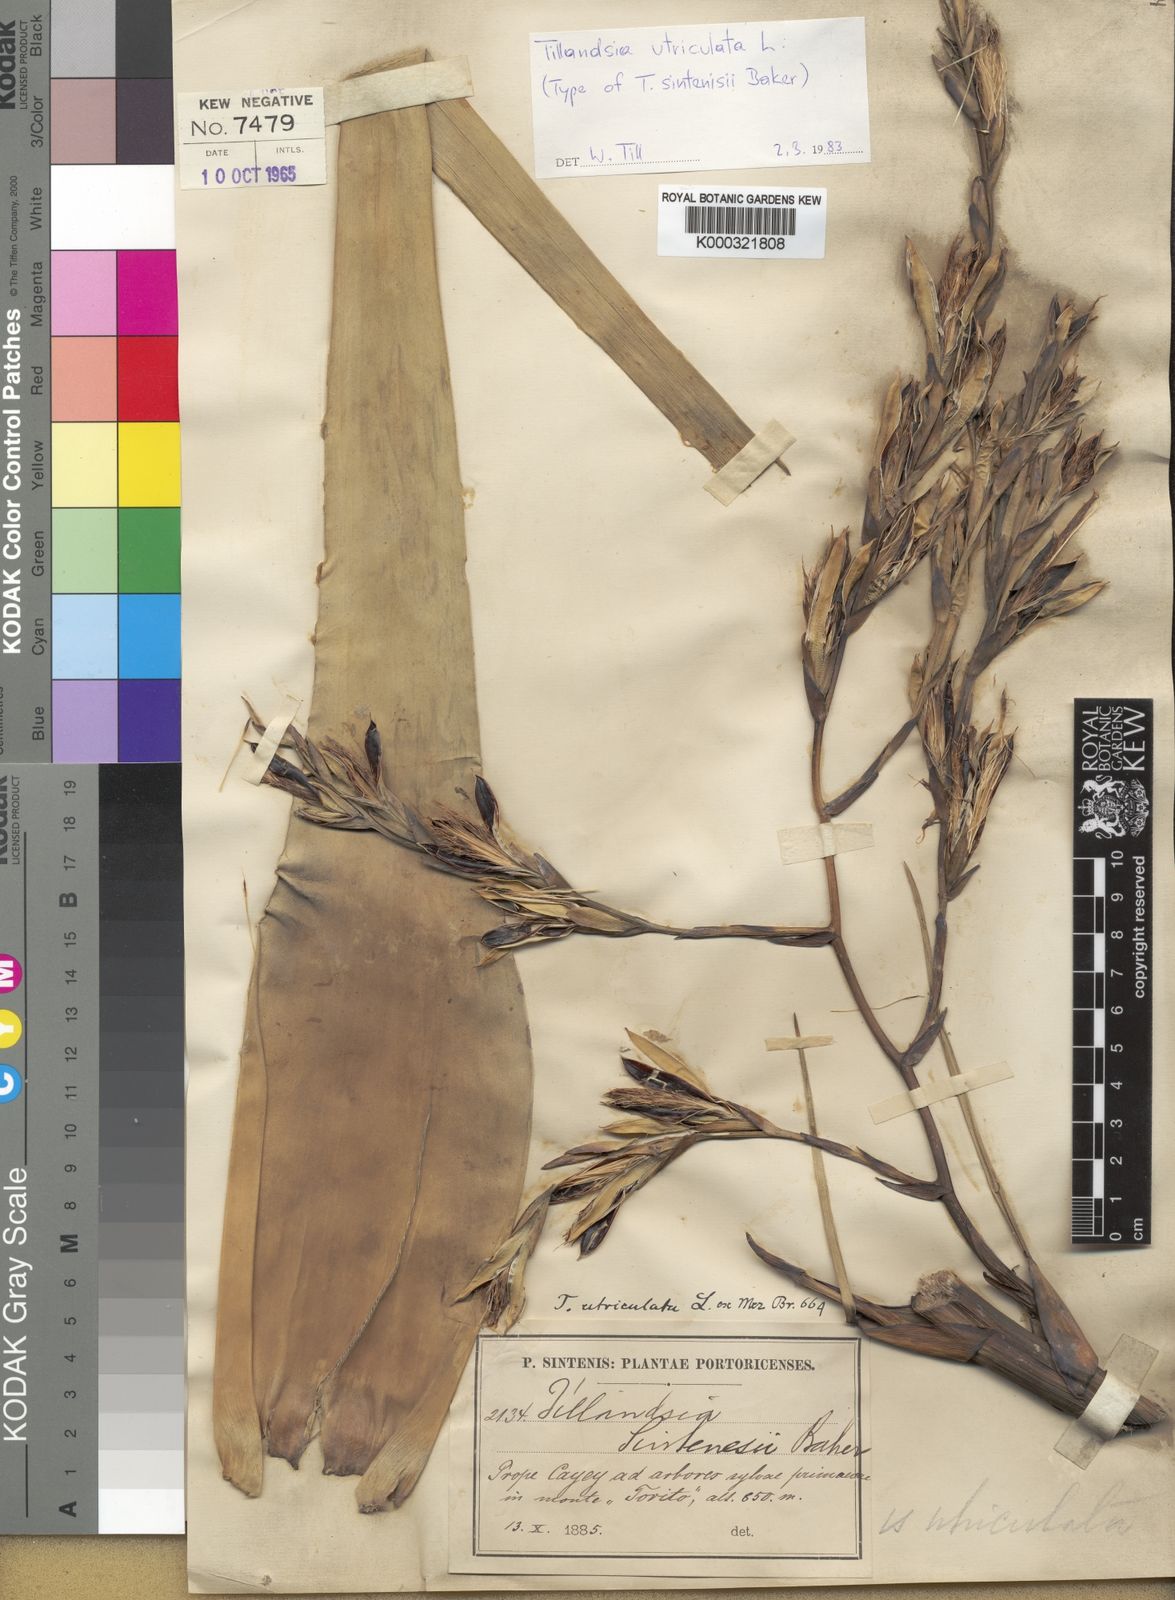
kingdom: Plantae
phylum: Tracheophyta
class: Liliopsida
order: Poales
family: Bromeliaceae
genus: Tillandsia
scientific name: Tillandsia utriculata
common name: Wild pine
